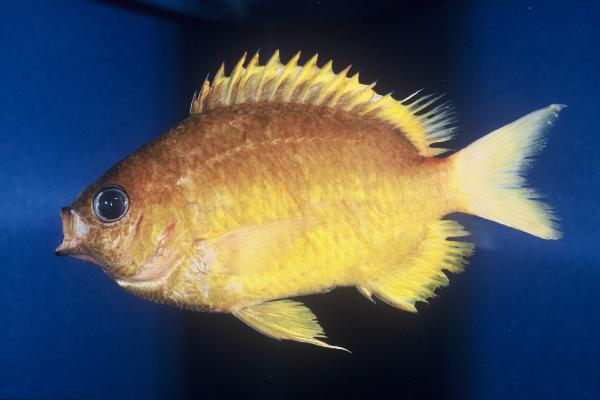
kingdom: Animalia
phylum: Chordata
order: Perciformes
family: Pomacentridae
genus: Chromis
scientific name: Chromis analis
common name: Yellow chromis
